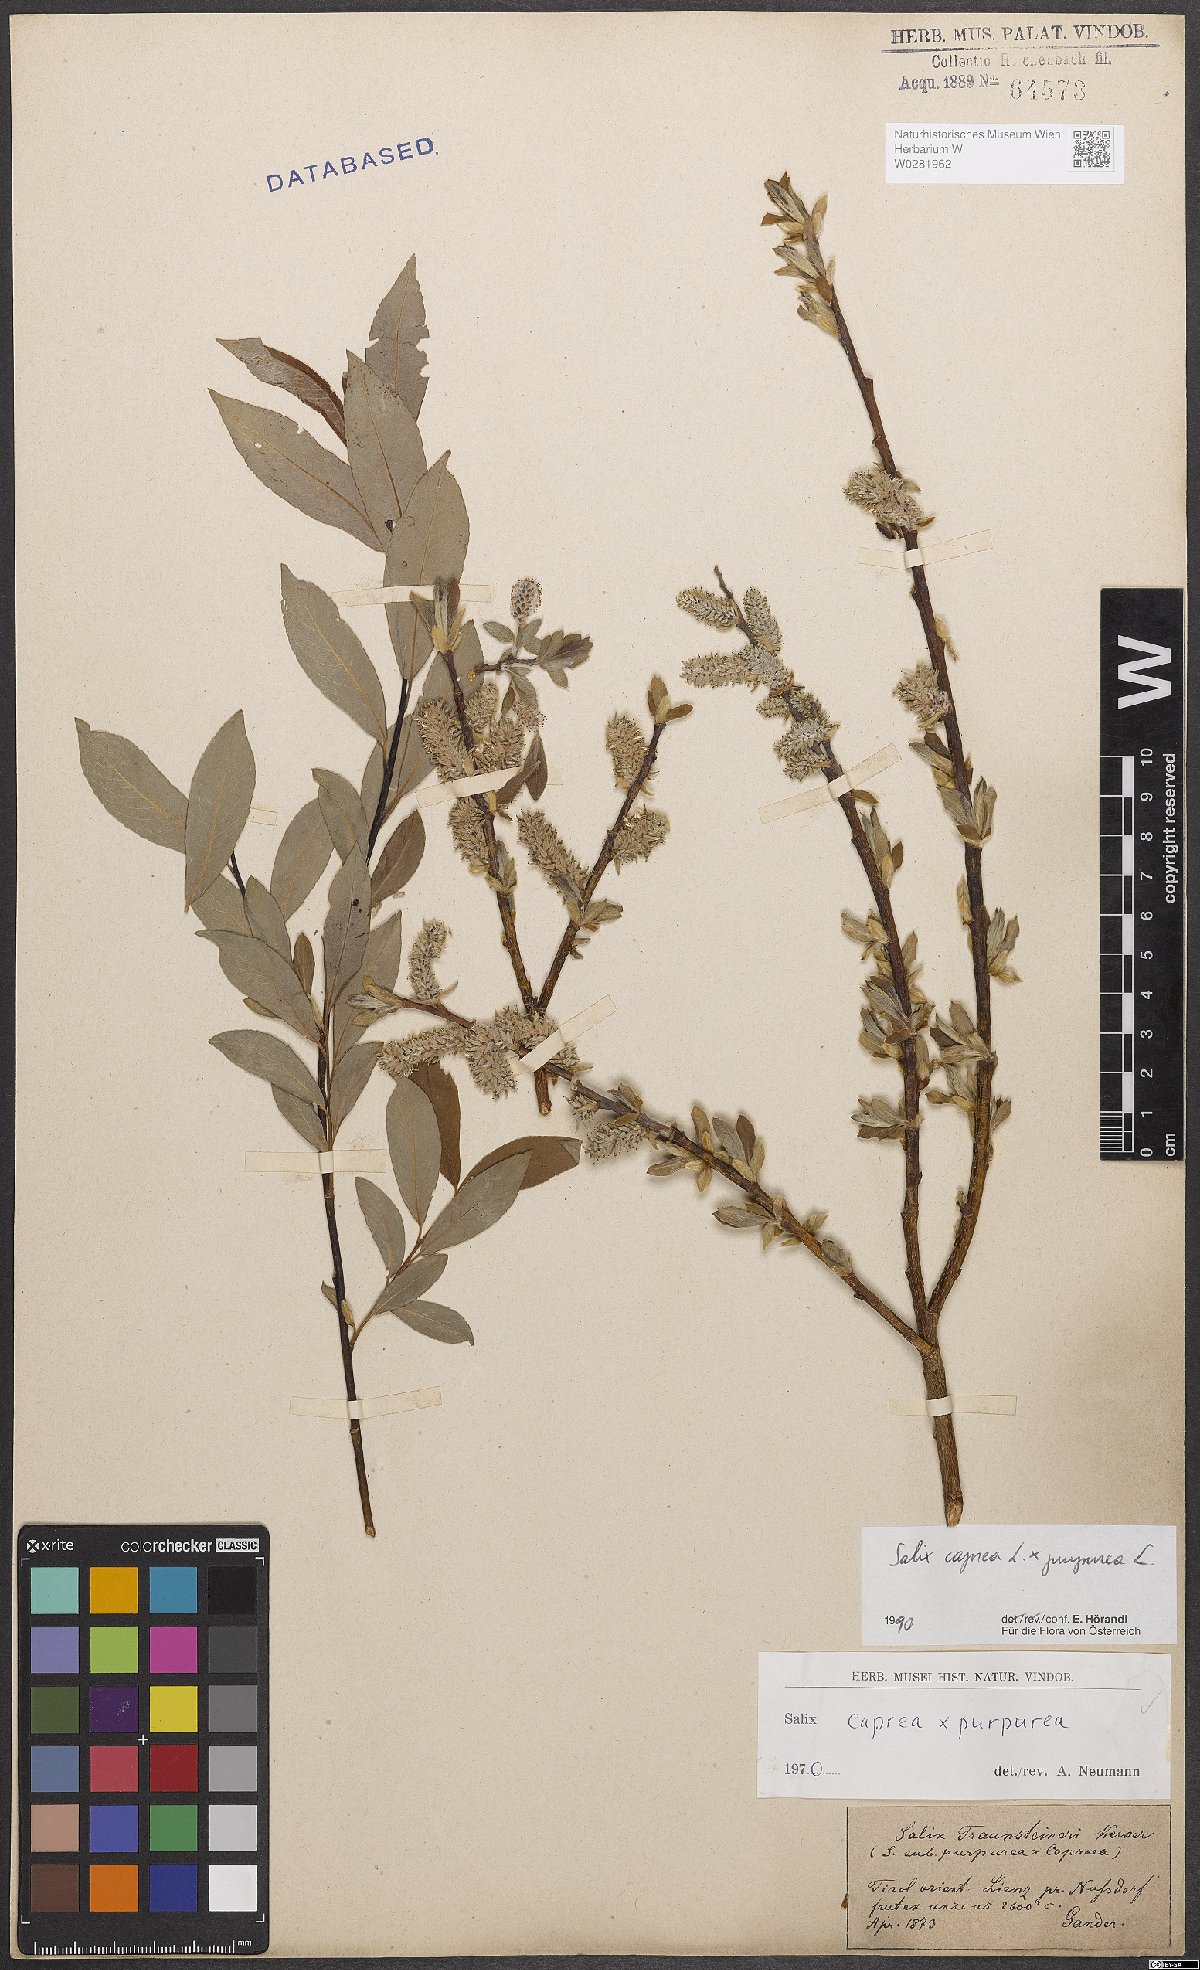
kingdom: Plantae
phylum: Tracheophyta
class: Magnoliopsida
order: Malpighiales
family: Salicaceae
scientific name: Salicaceae
